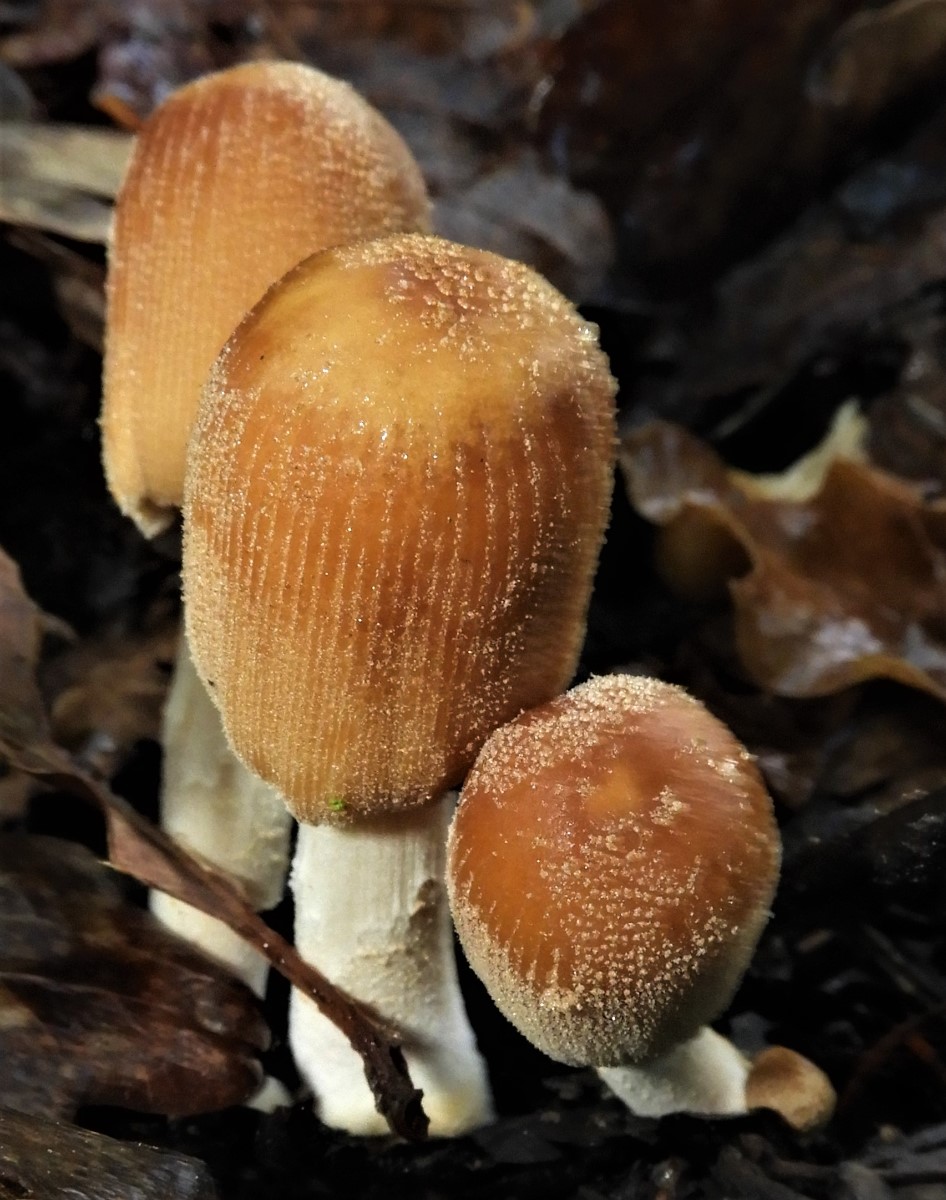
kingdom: Fungi
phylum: Basidiomycota
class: Agaricomycetes
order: Agaricales
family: Psathyrellaceae
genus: Coprinellus
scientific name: Coprinellus
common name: blækhat
